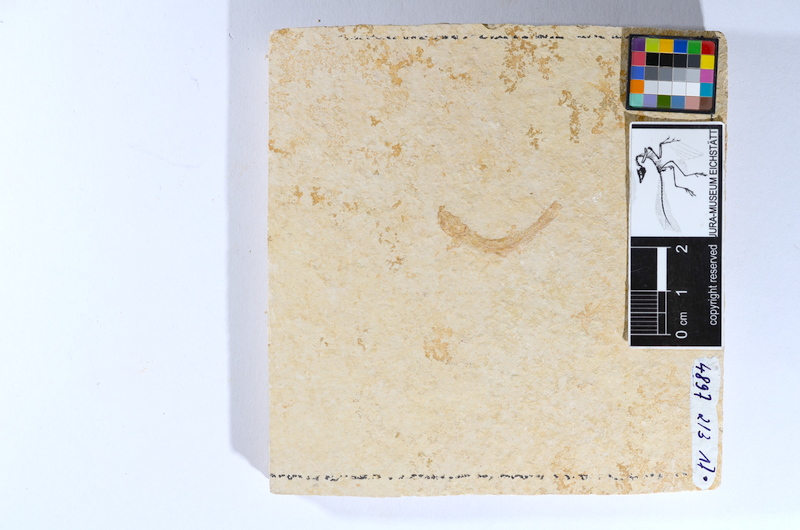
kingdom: Animalia
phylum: Chordata
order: Salmoniformes
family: Orthogonikleithridae
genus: Leptolepides
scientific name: Leptolepides sprattiformis
